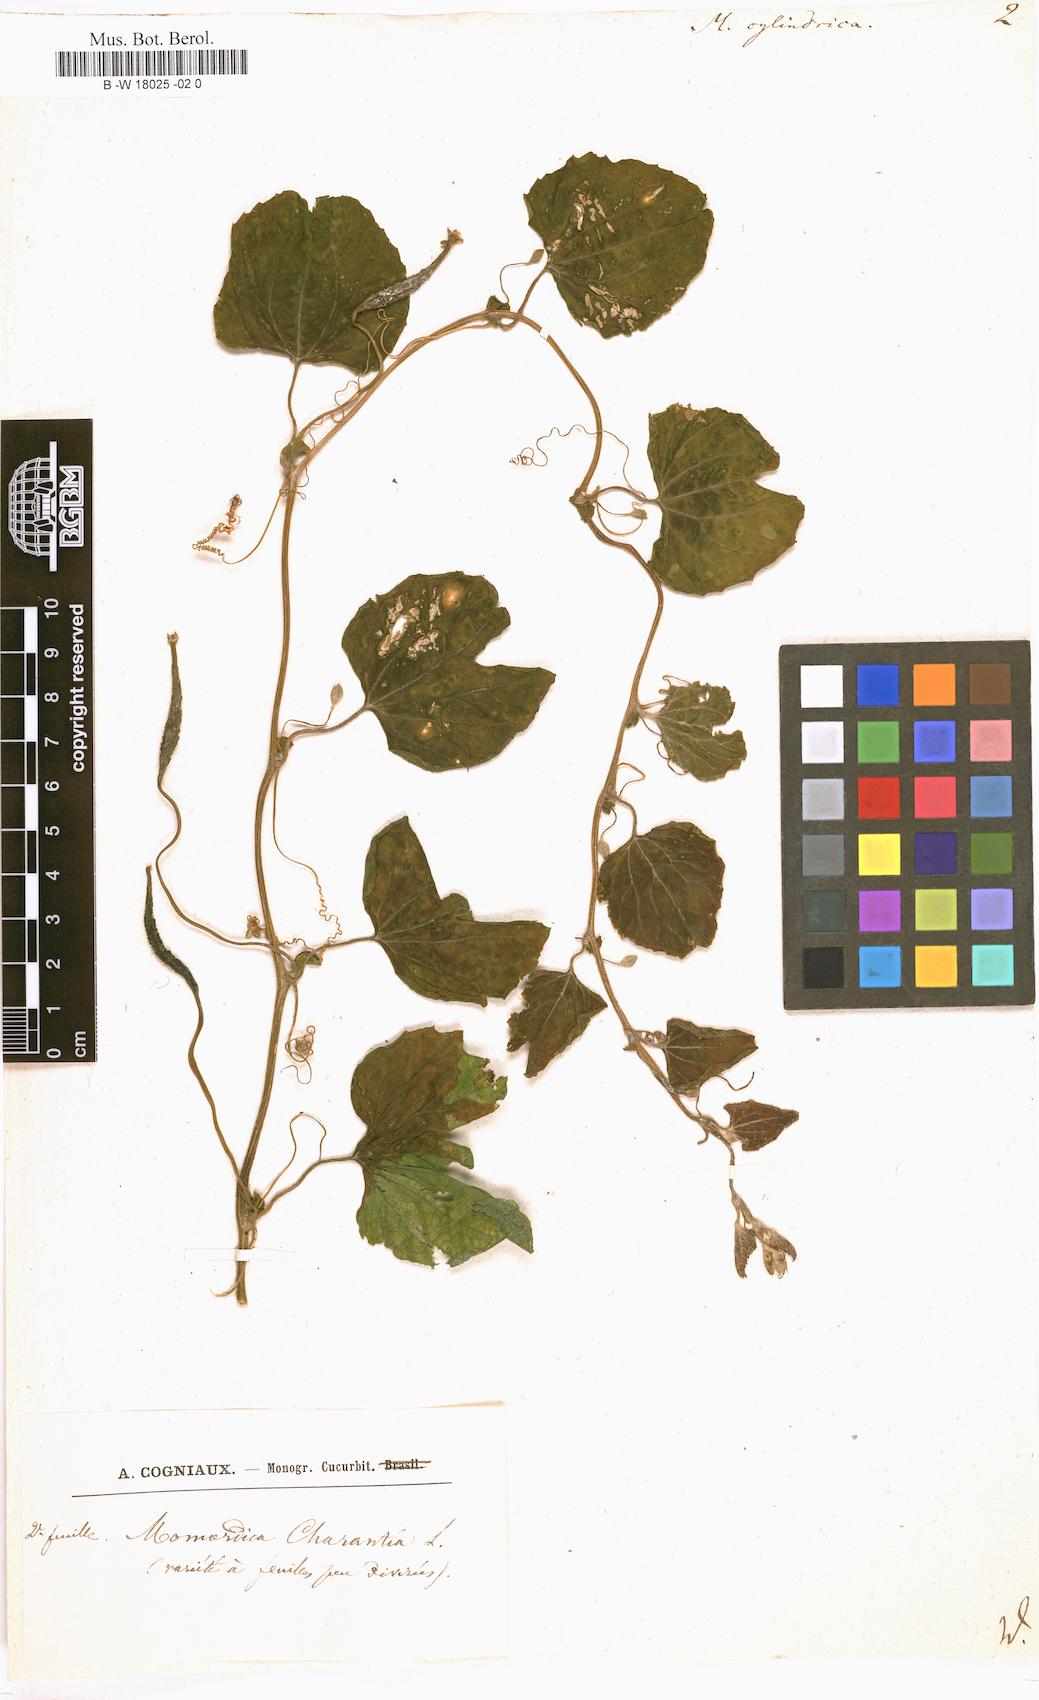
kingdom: Plantae
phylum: Tracheophyta
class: Magnoliopsida
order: Cucurbitales
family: Cucurbitaceae
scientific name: Cucurbitaceae
